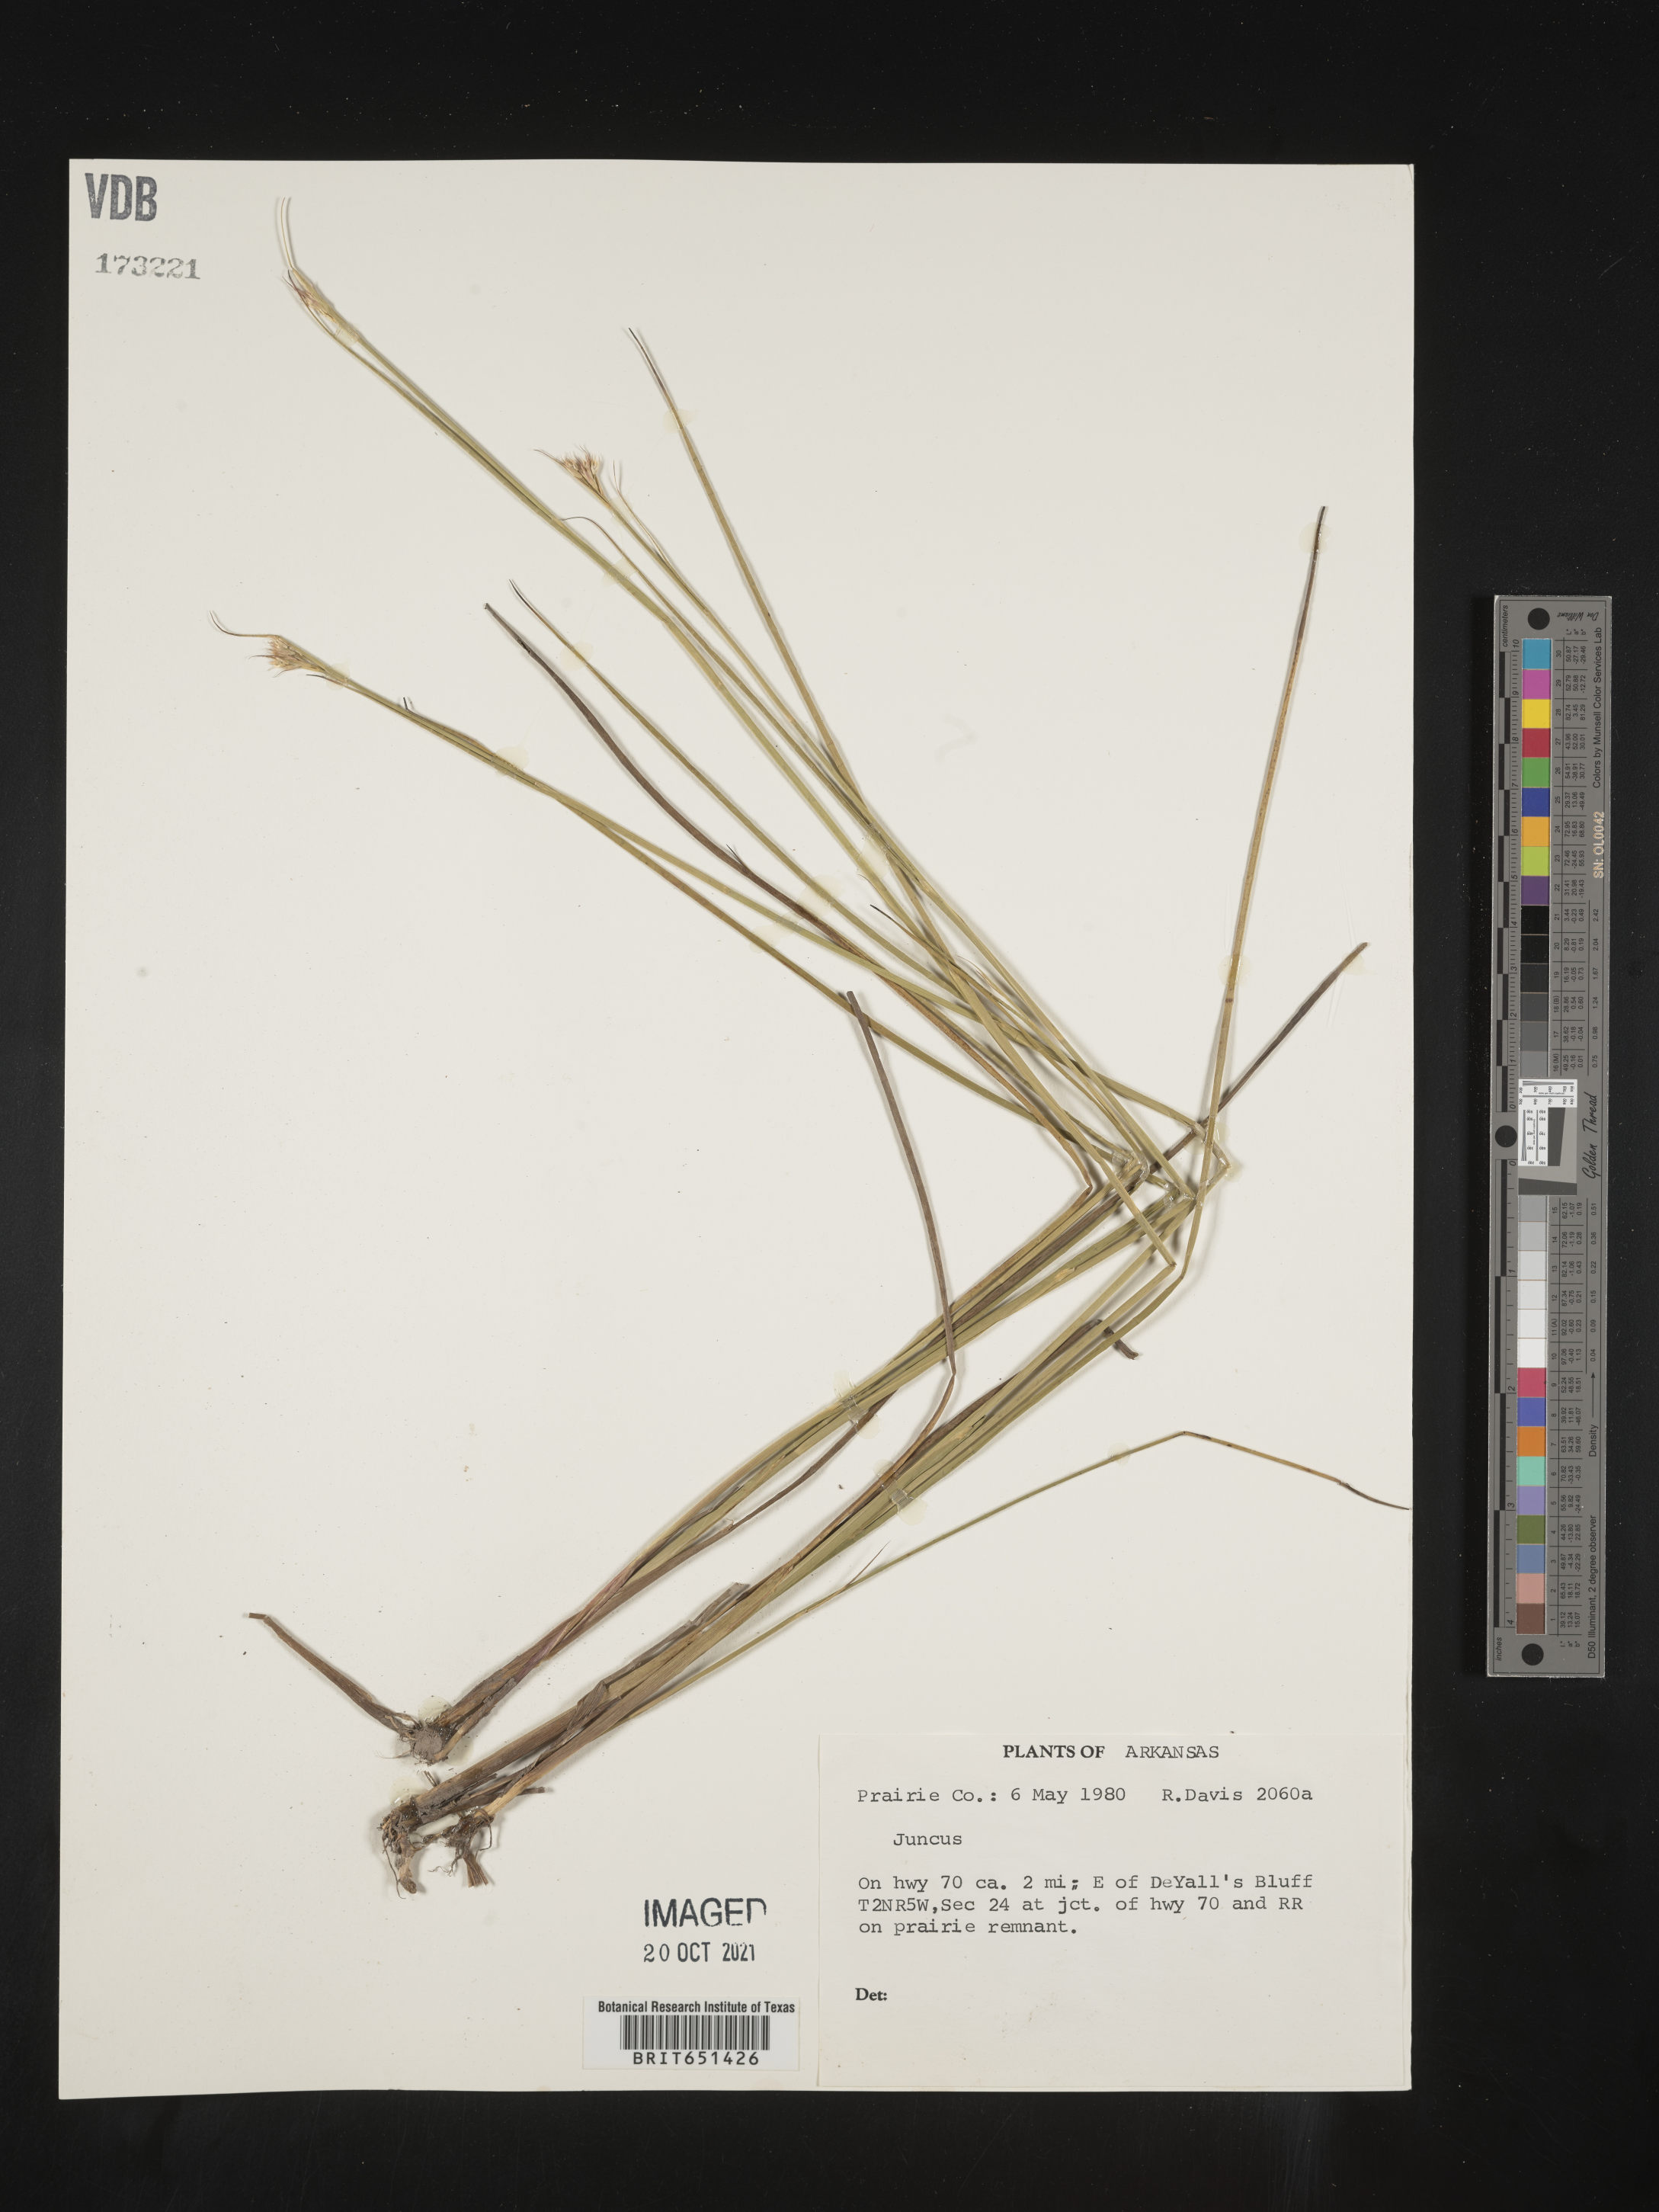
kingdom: Plantae
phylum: Tracheophyta
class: Liliopsida
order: Poales
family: Juncaceae
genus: Juncus
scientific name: Juncus
